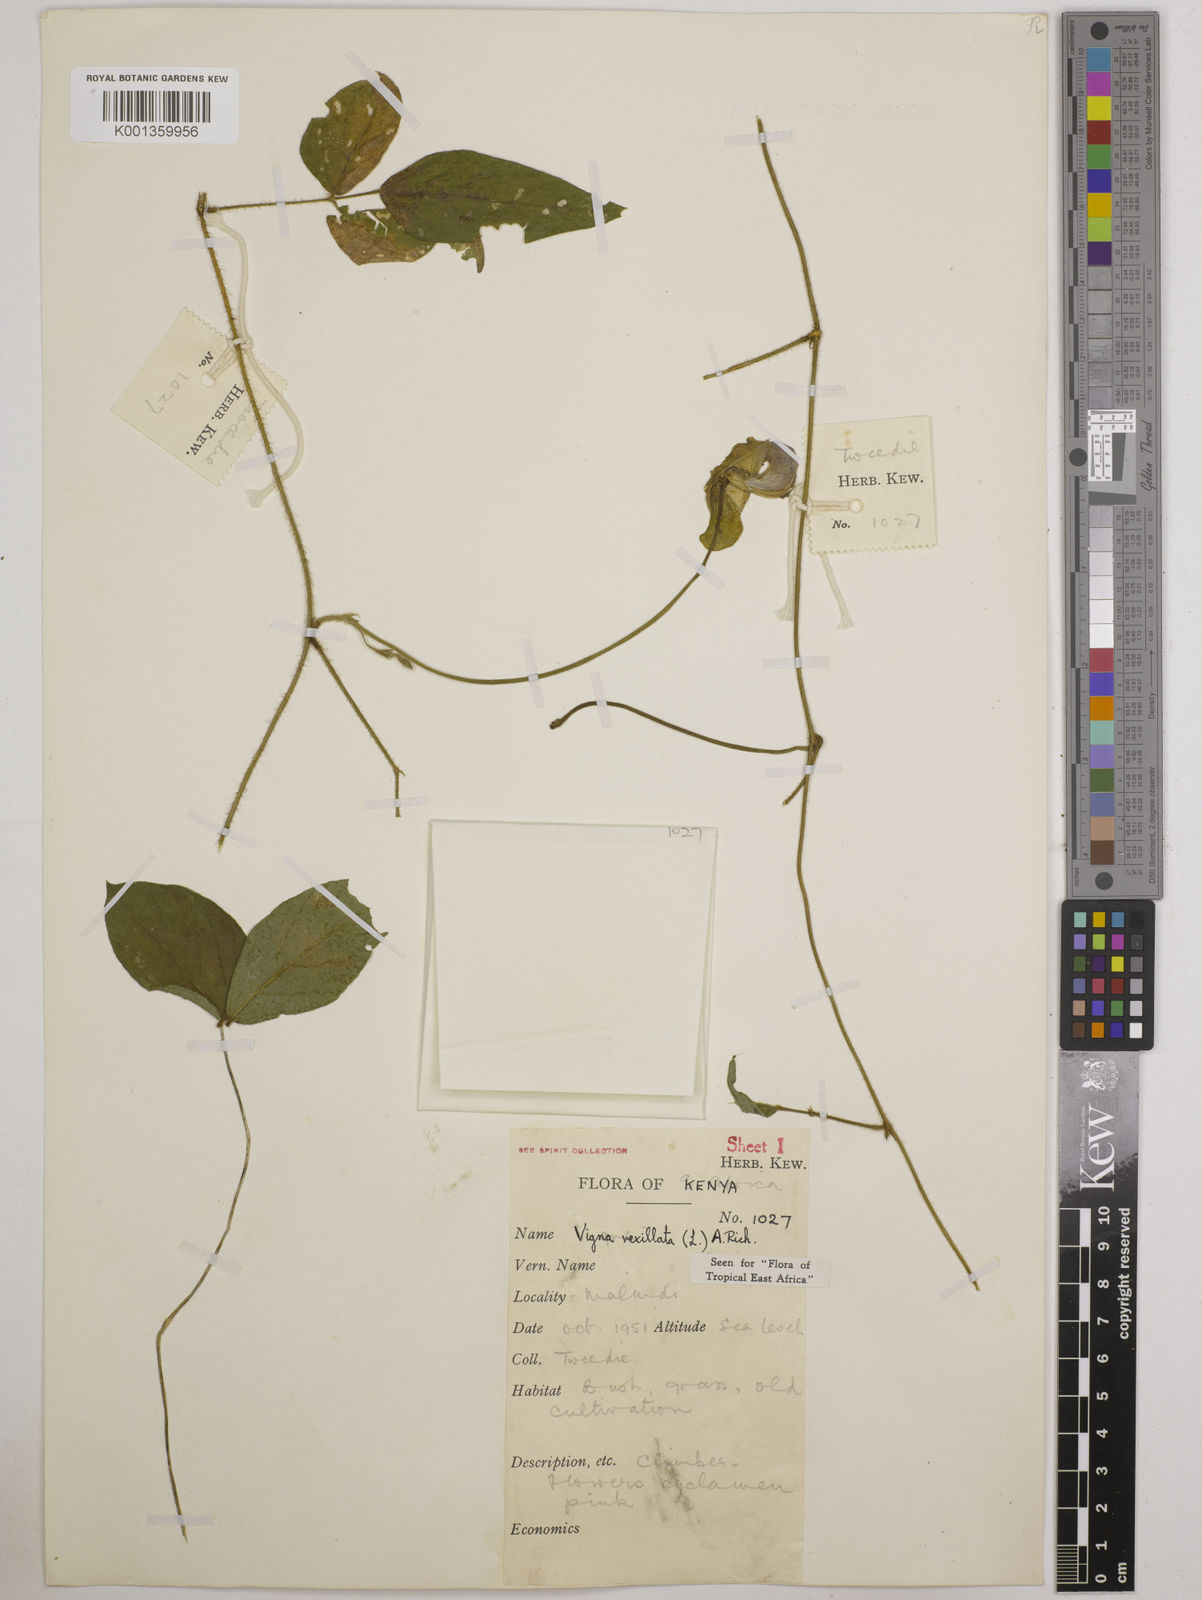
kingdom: Plantae
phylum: Tracheophyta
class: Magnoliopsida
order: Fabales
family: Fabaceae
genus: Vigna
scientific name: Vigna vexillata
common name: Zombi pea
